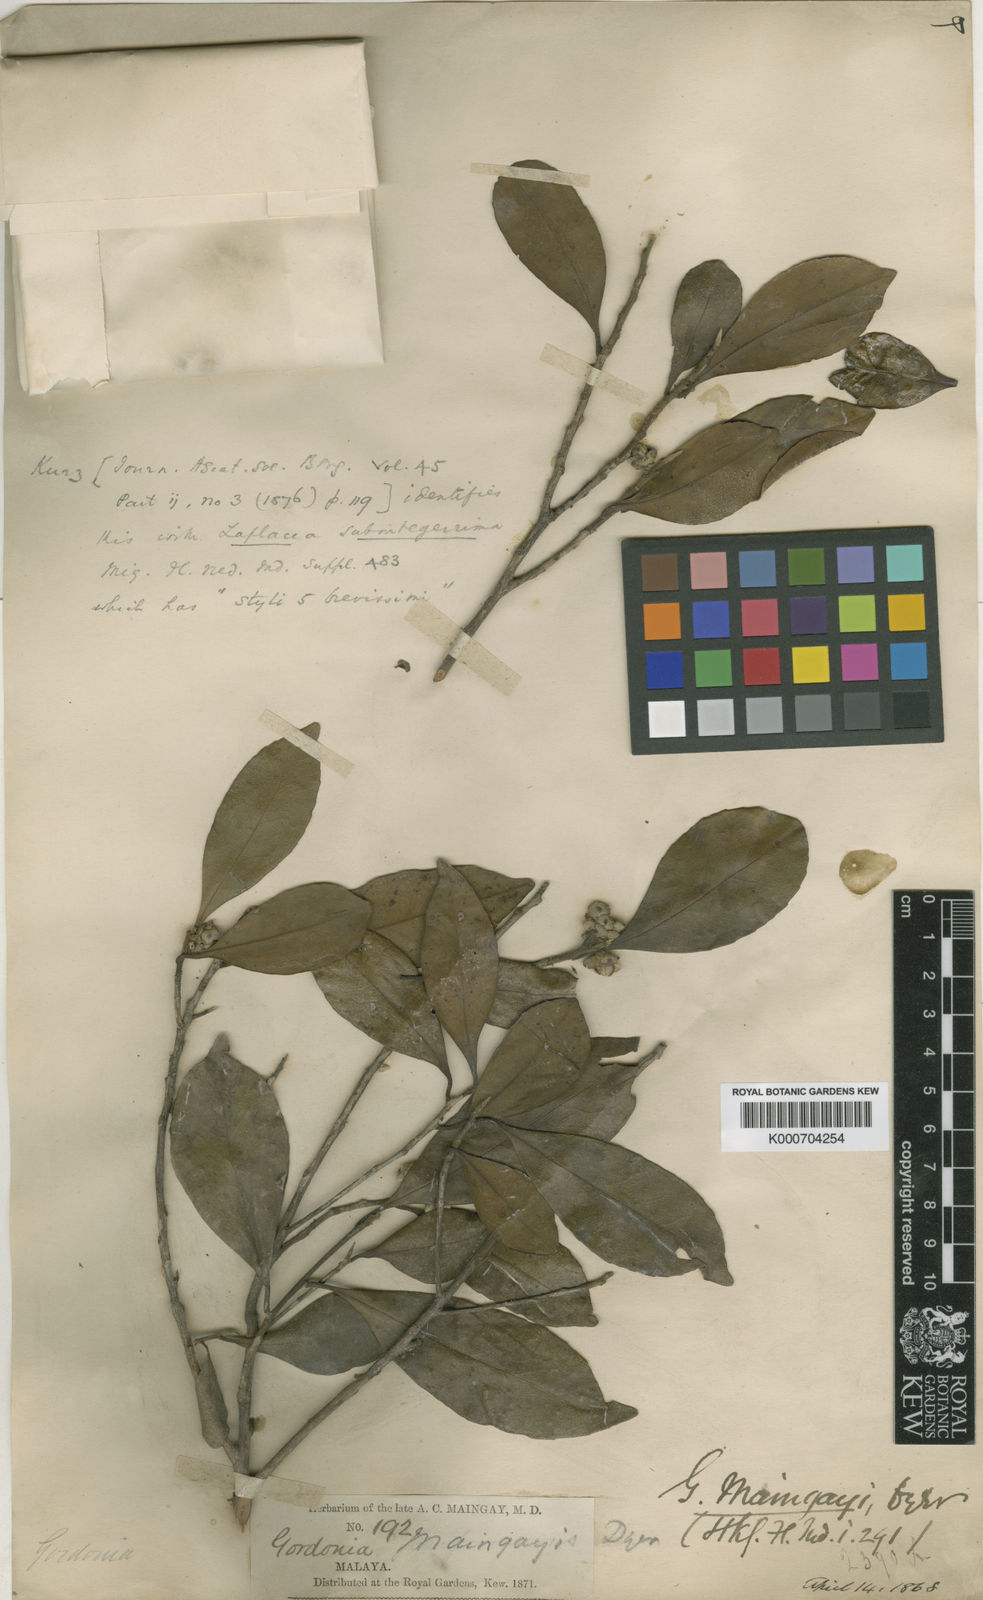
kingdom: Plantae
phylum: Tracheophyta
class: Magnoliopsida
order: Ericales
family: Theaceae
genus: Polyspora
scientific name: Polyspora maingayi
